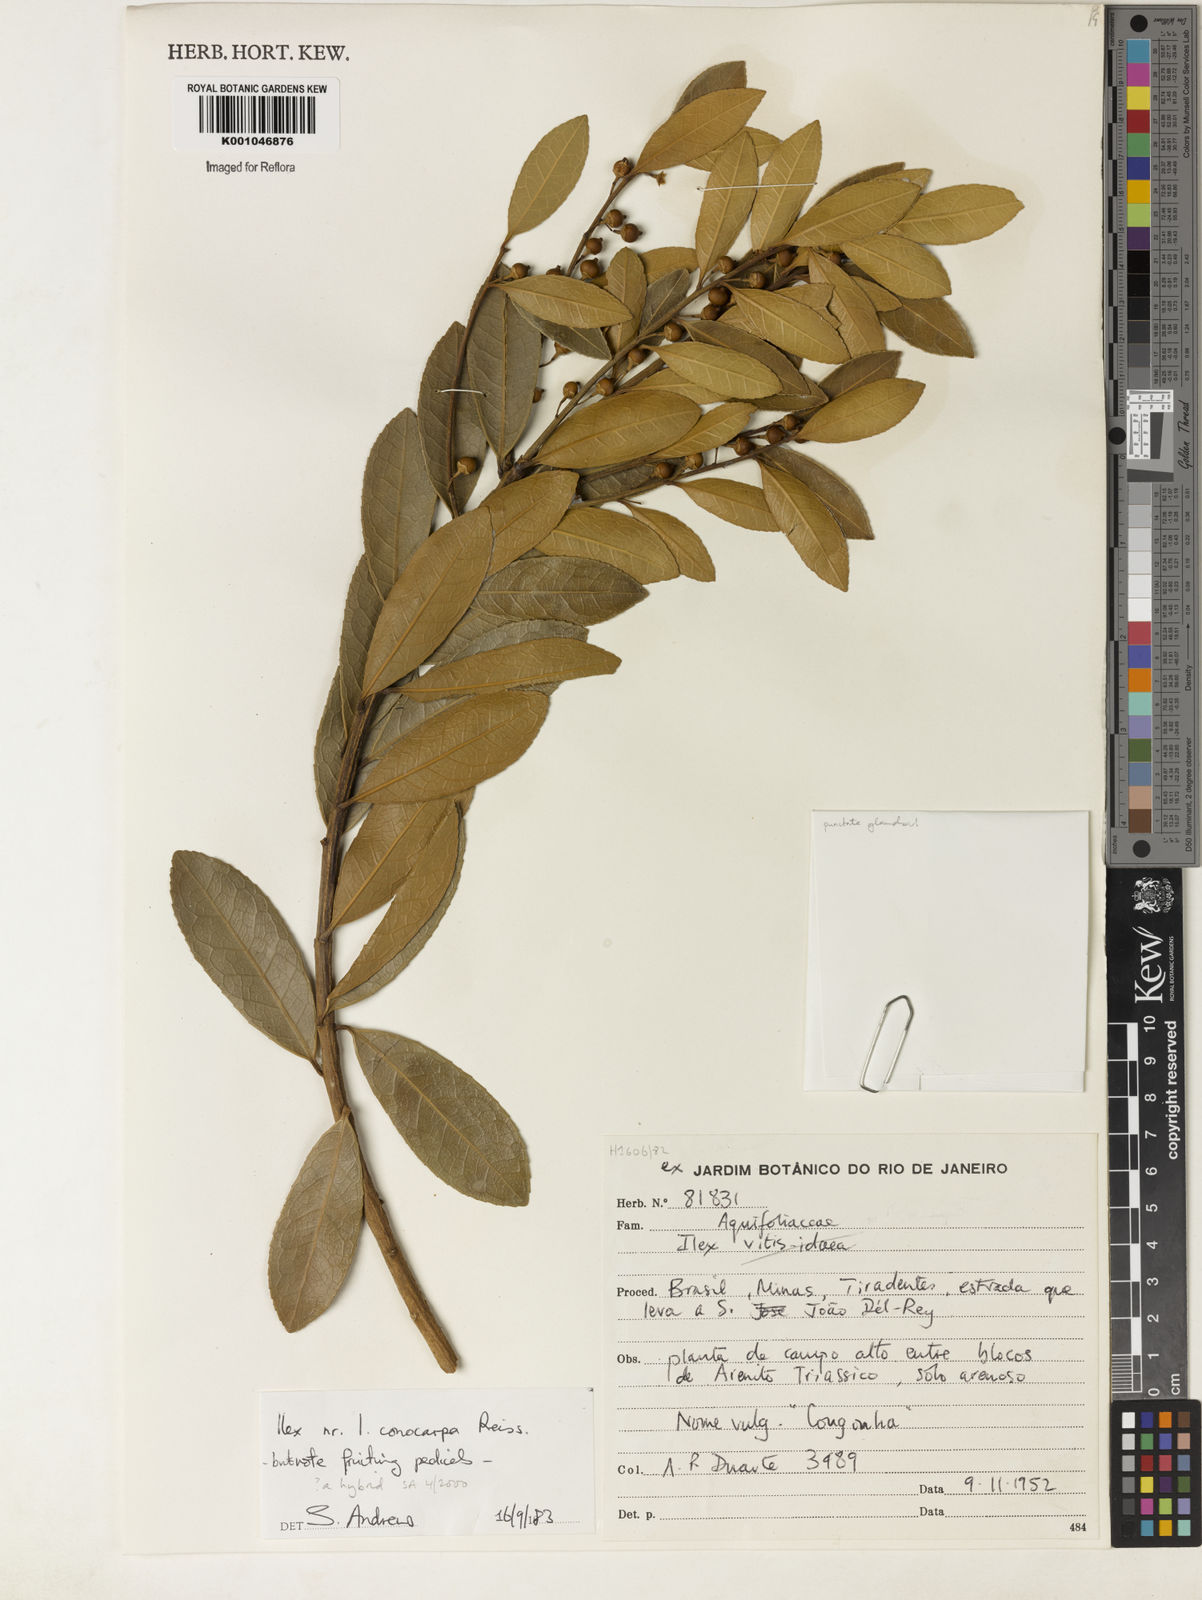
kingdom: Plantae
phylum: Tracheophyta
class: Magnoliopsida
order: Aquifoliales
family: Aquifoliaceae
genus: Ilex
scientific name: Ilex conocarpa
